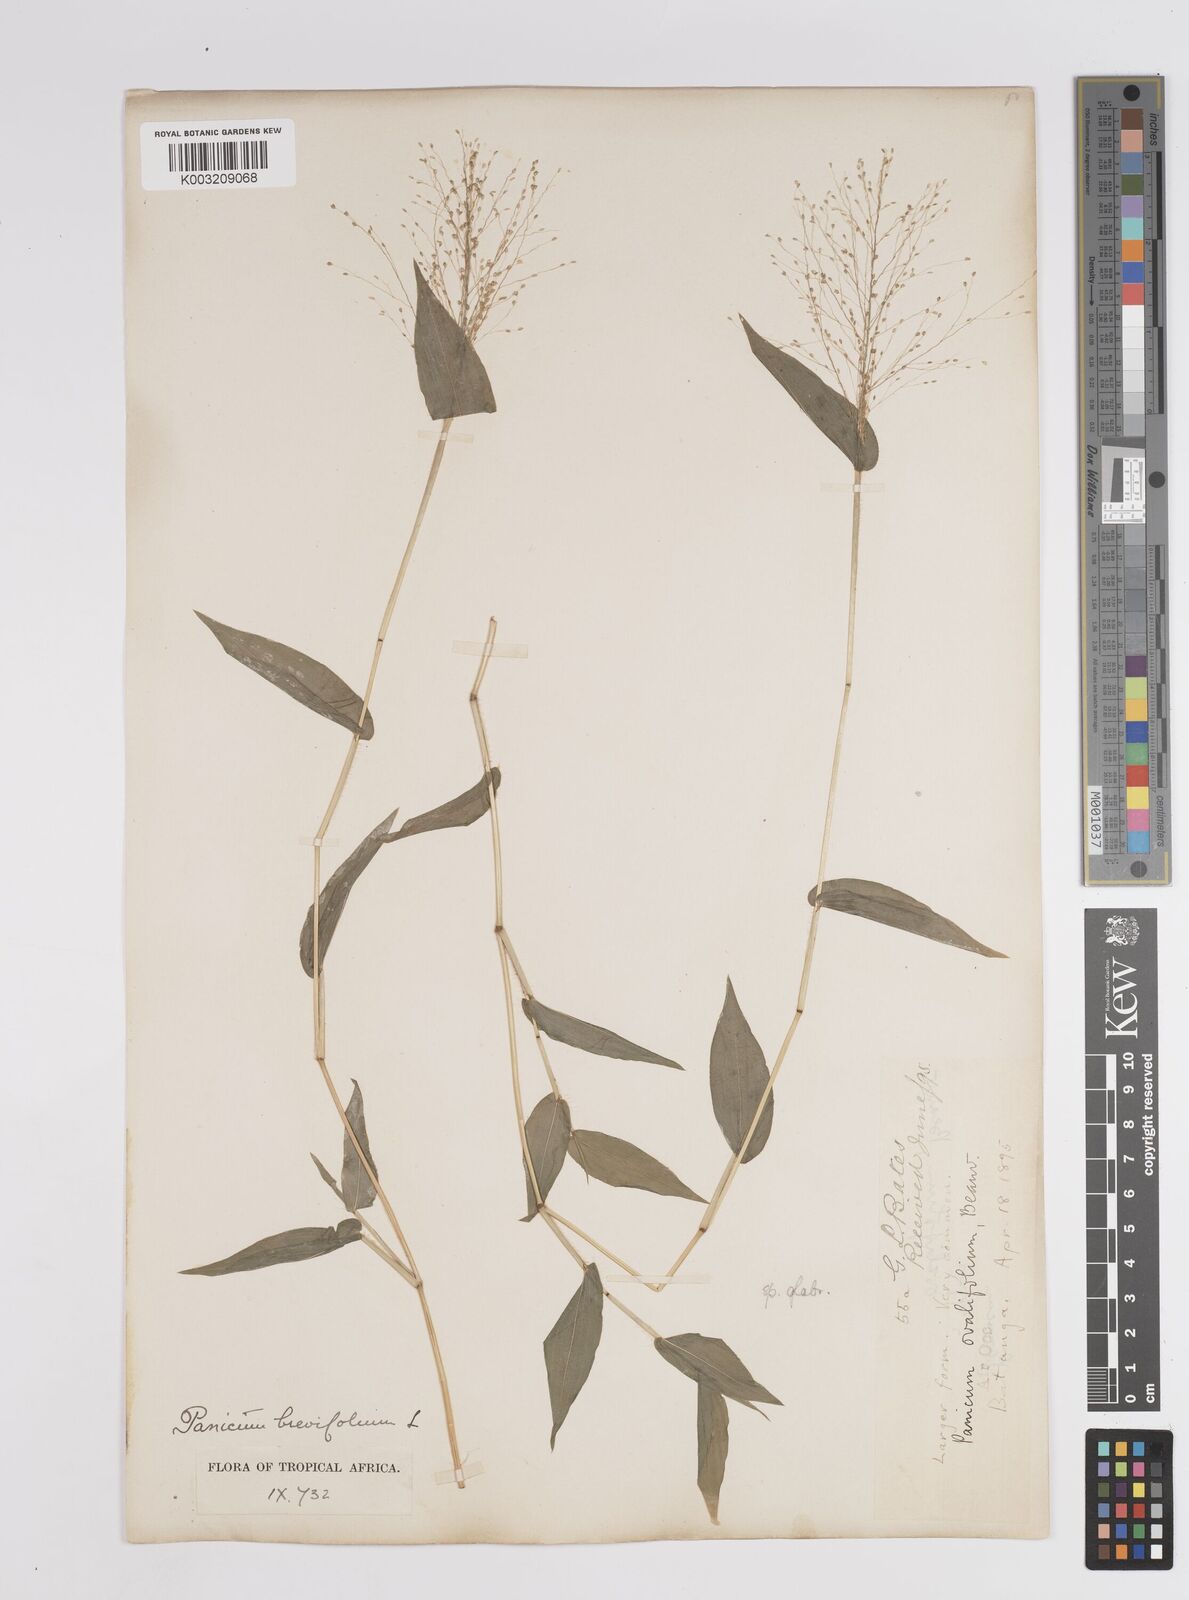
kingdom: Plantae
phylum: Tracheophyta
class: Liliopsida
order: Poales
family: Poaceae
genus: Panicum
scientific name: Panicum brevifolium
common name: Shortleaf panic grass
